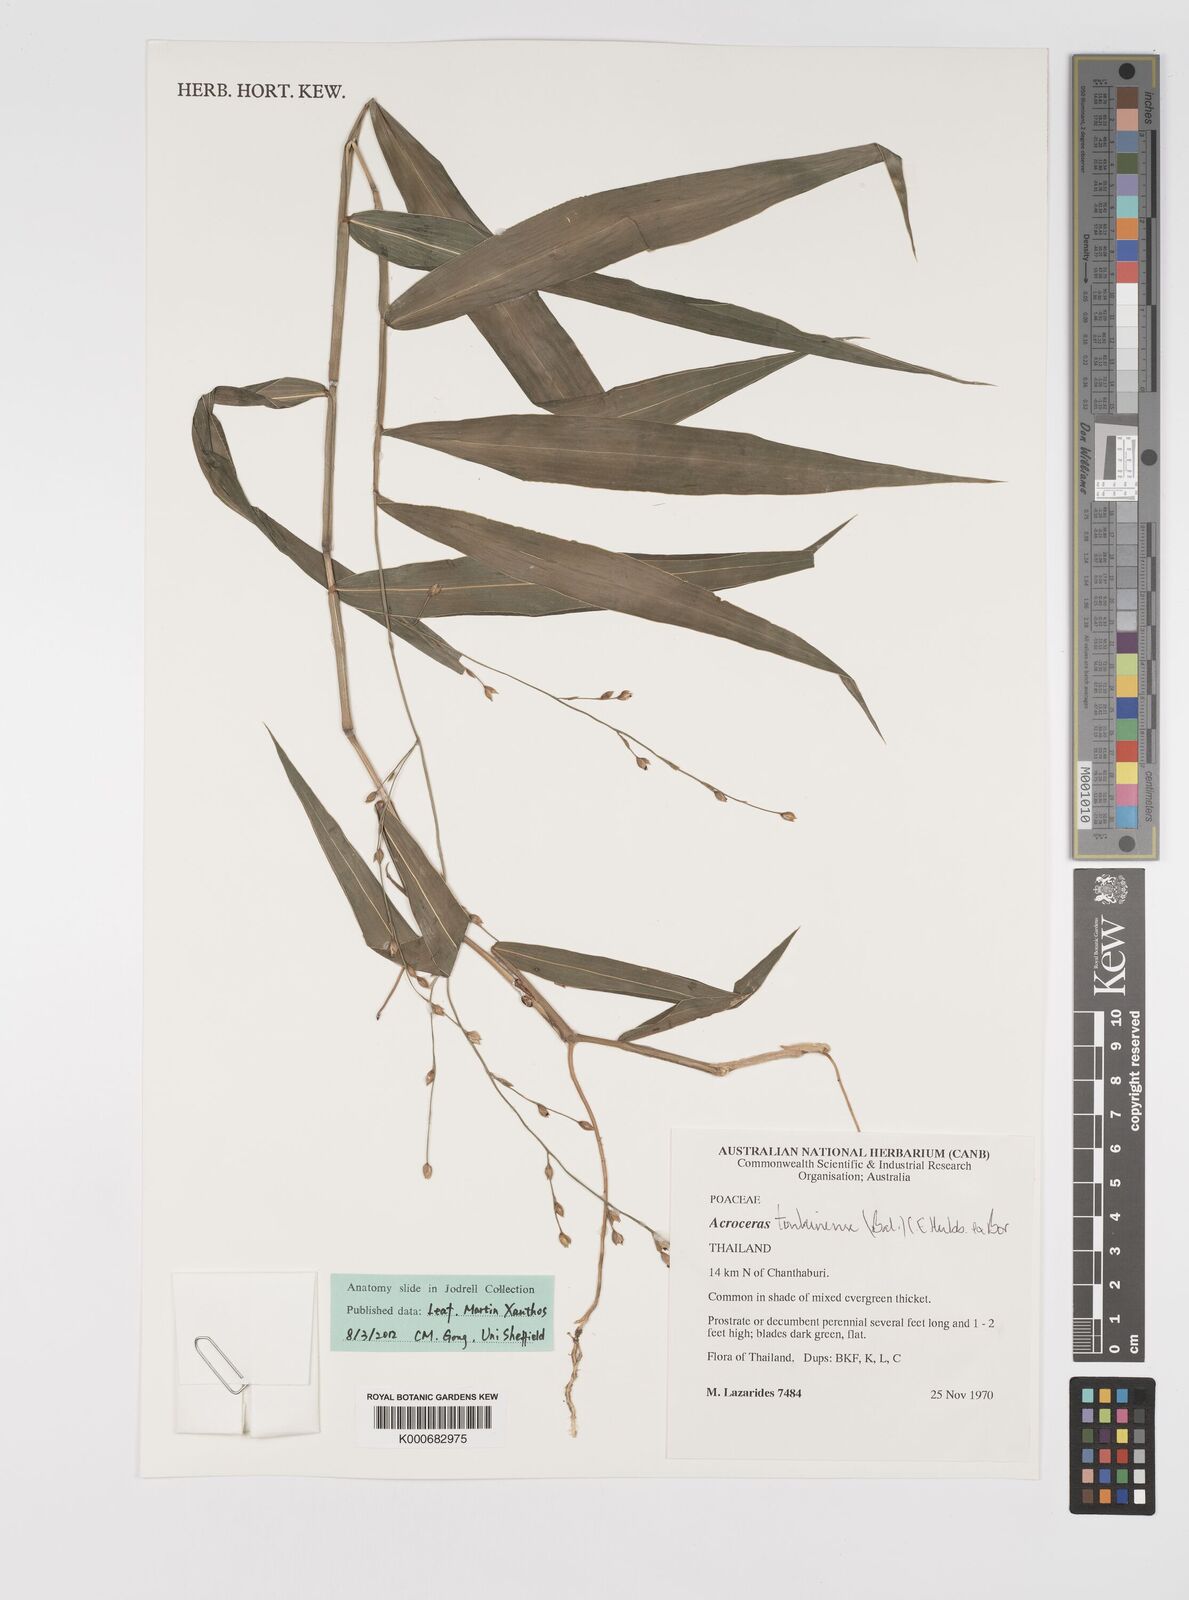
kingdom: Plantae
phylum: Tracheophyta
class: Liliopsida
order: Poales
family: Poaceae
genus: Acroceras
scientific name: Acroceras
